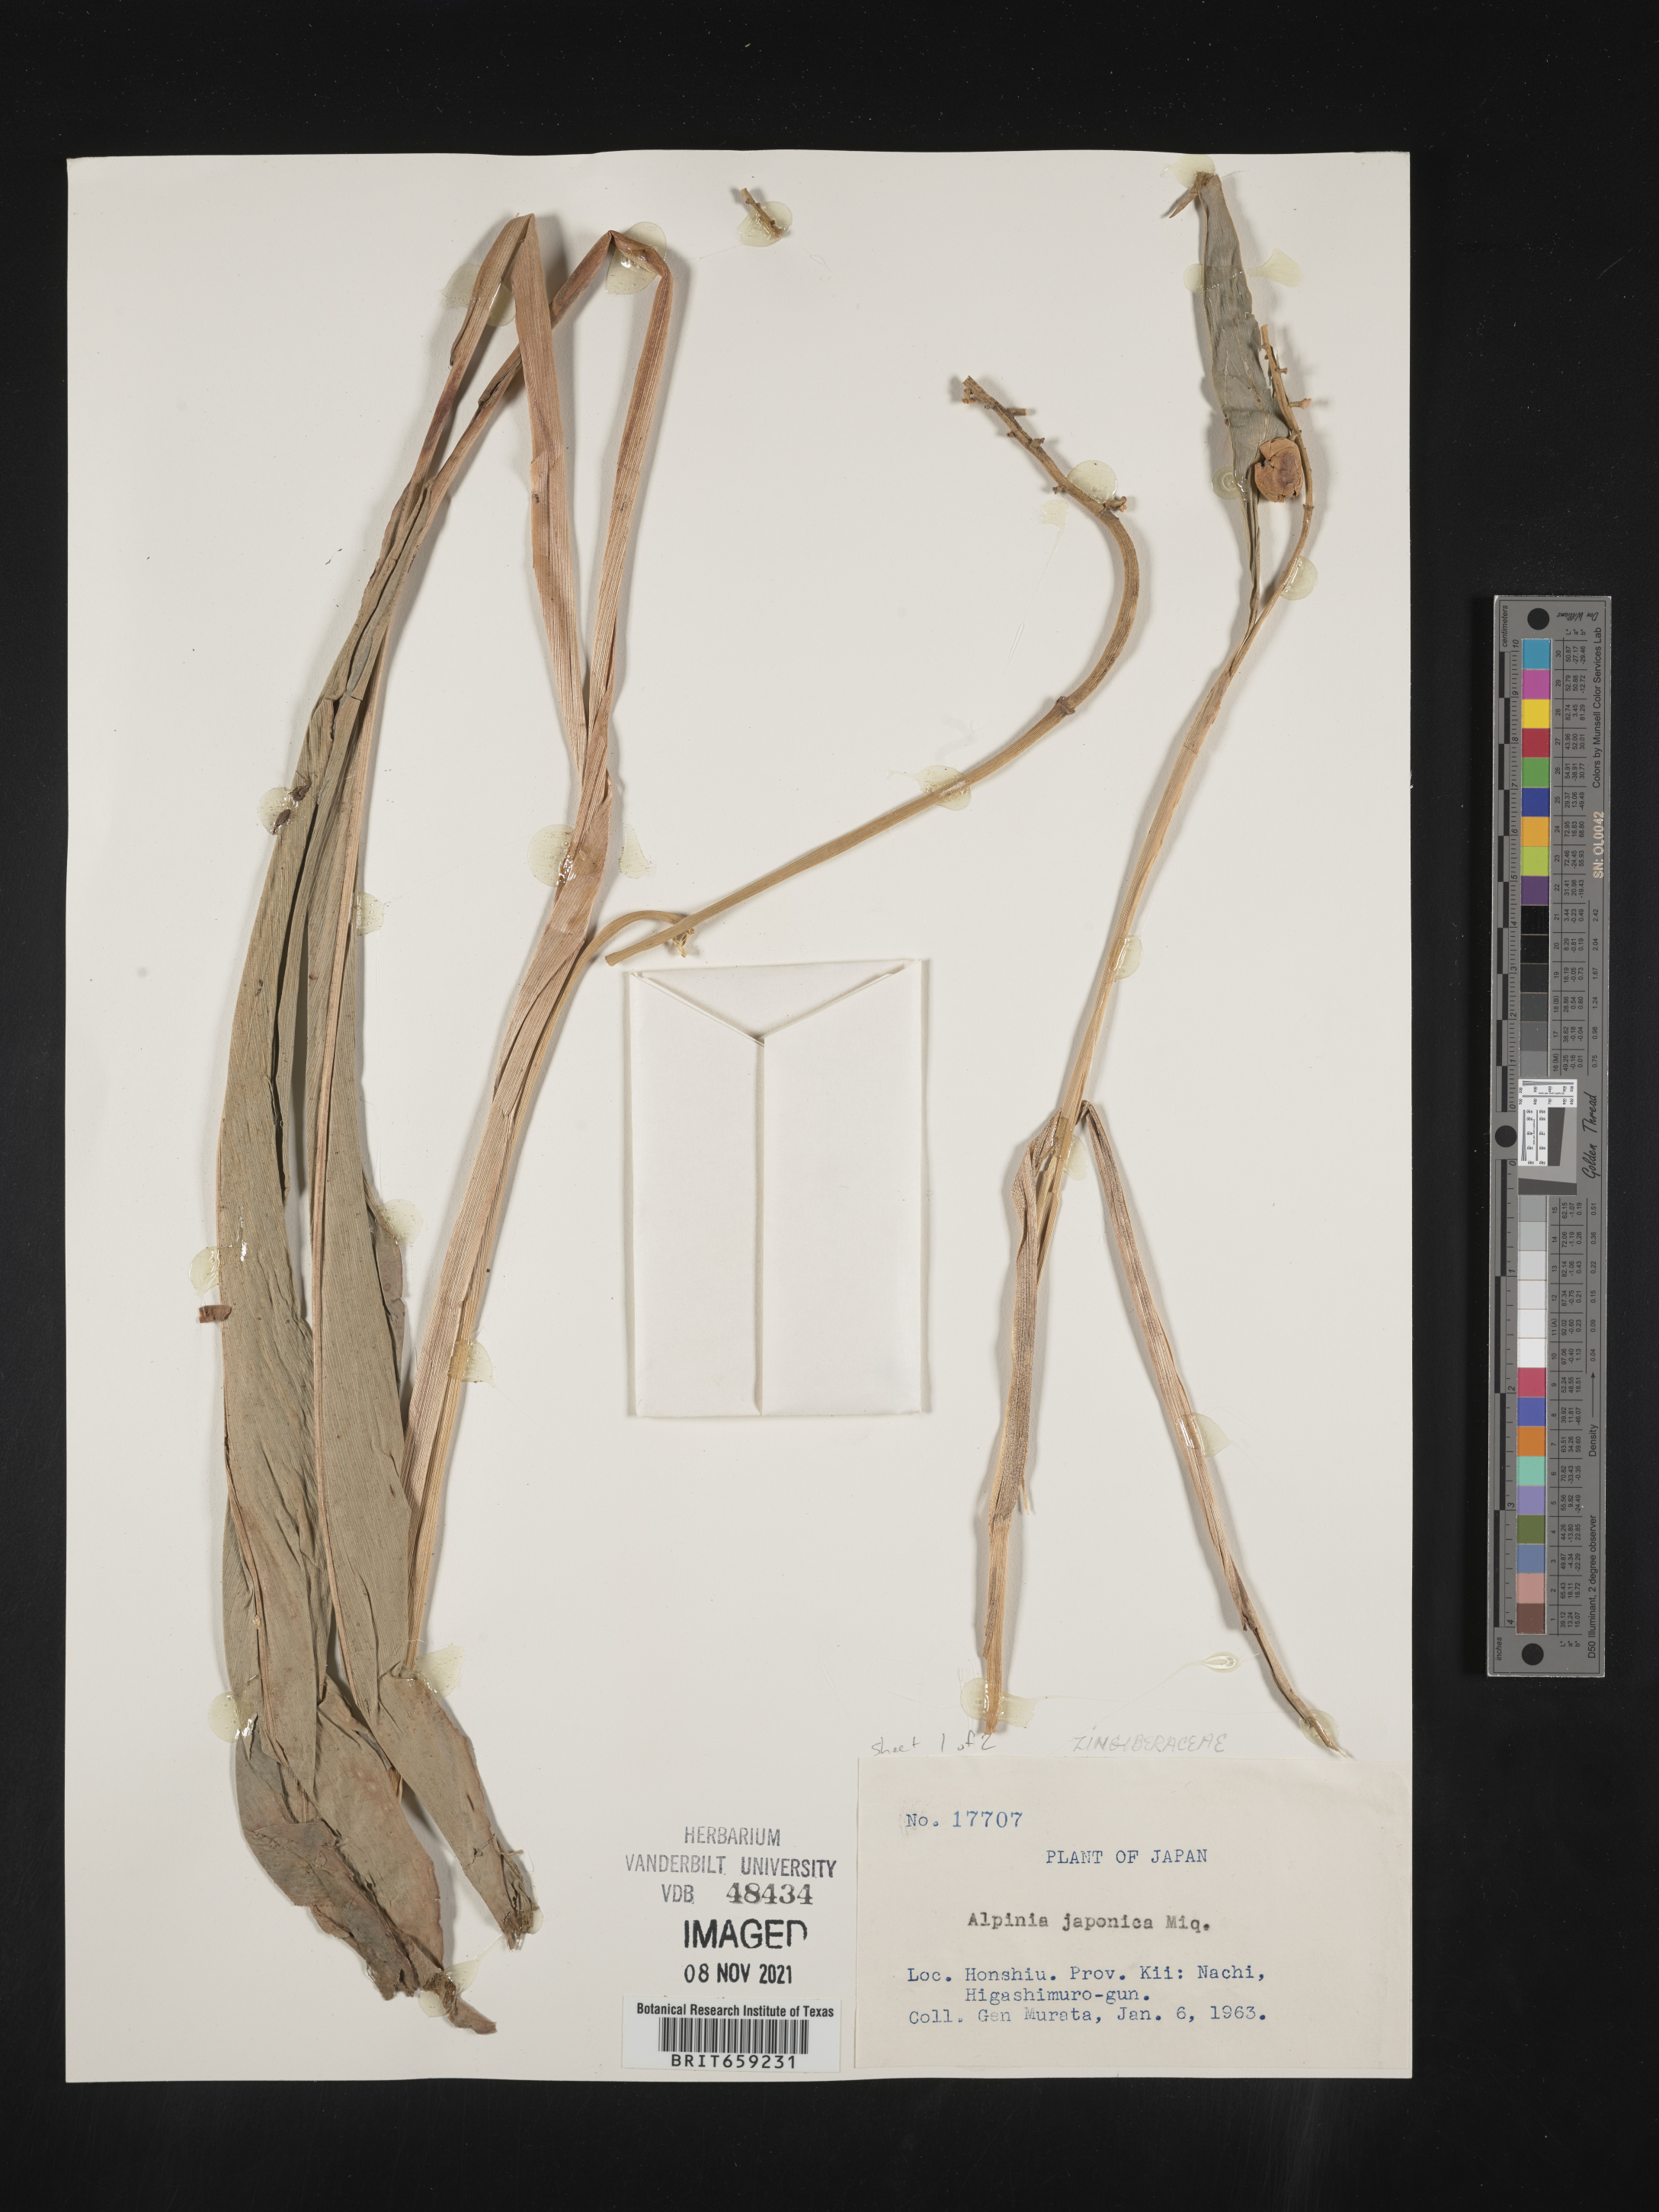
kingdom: Plantae
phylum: Tracheophyta
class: Liliopsida
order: Zingiberales
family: Zingiberaceae
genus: Alpinia
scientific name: Alpinia
